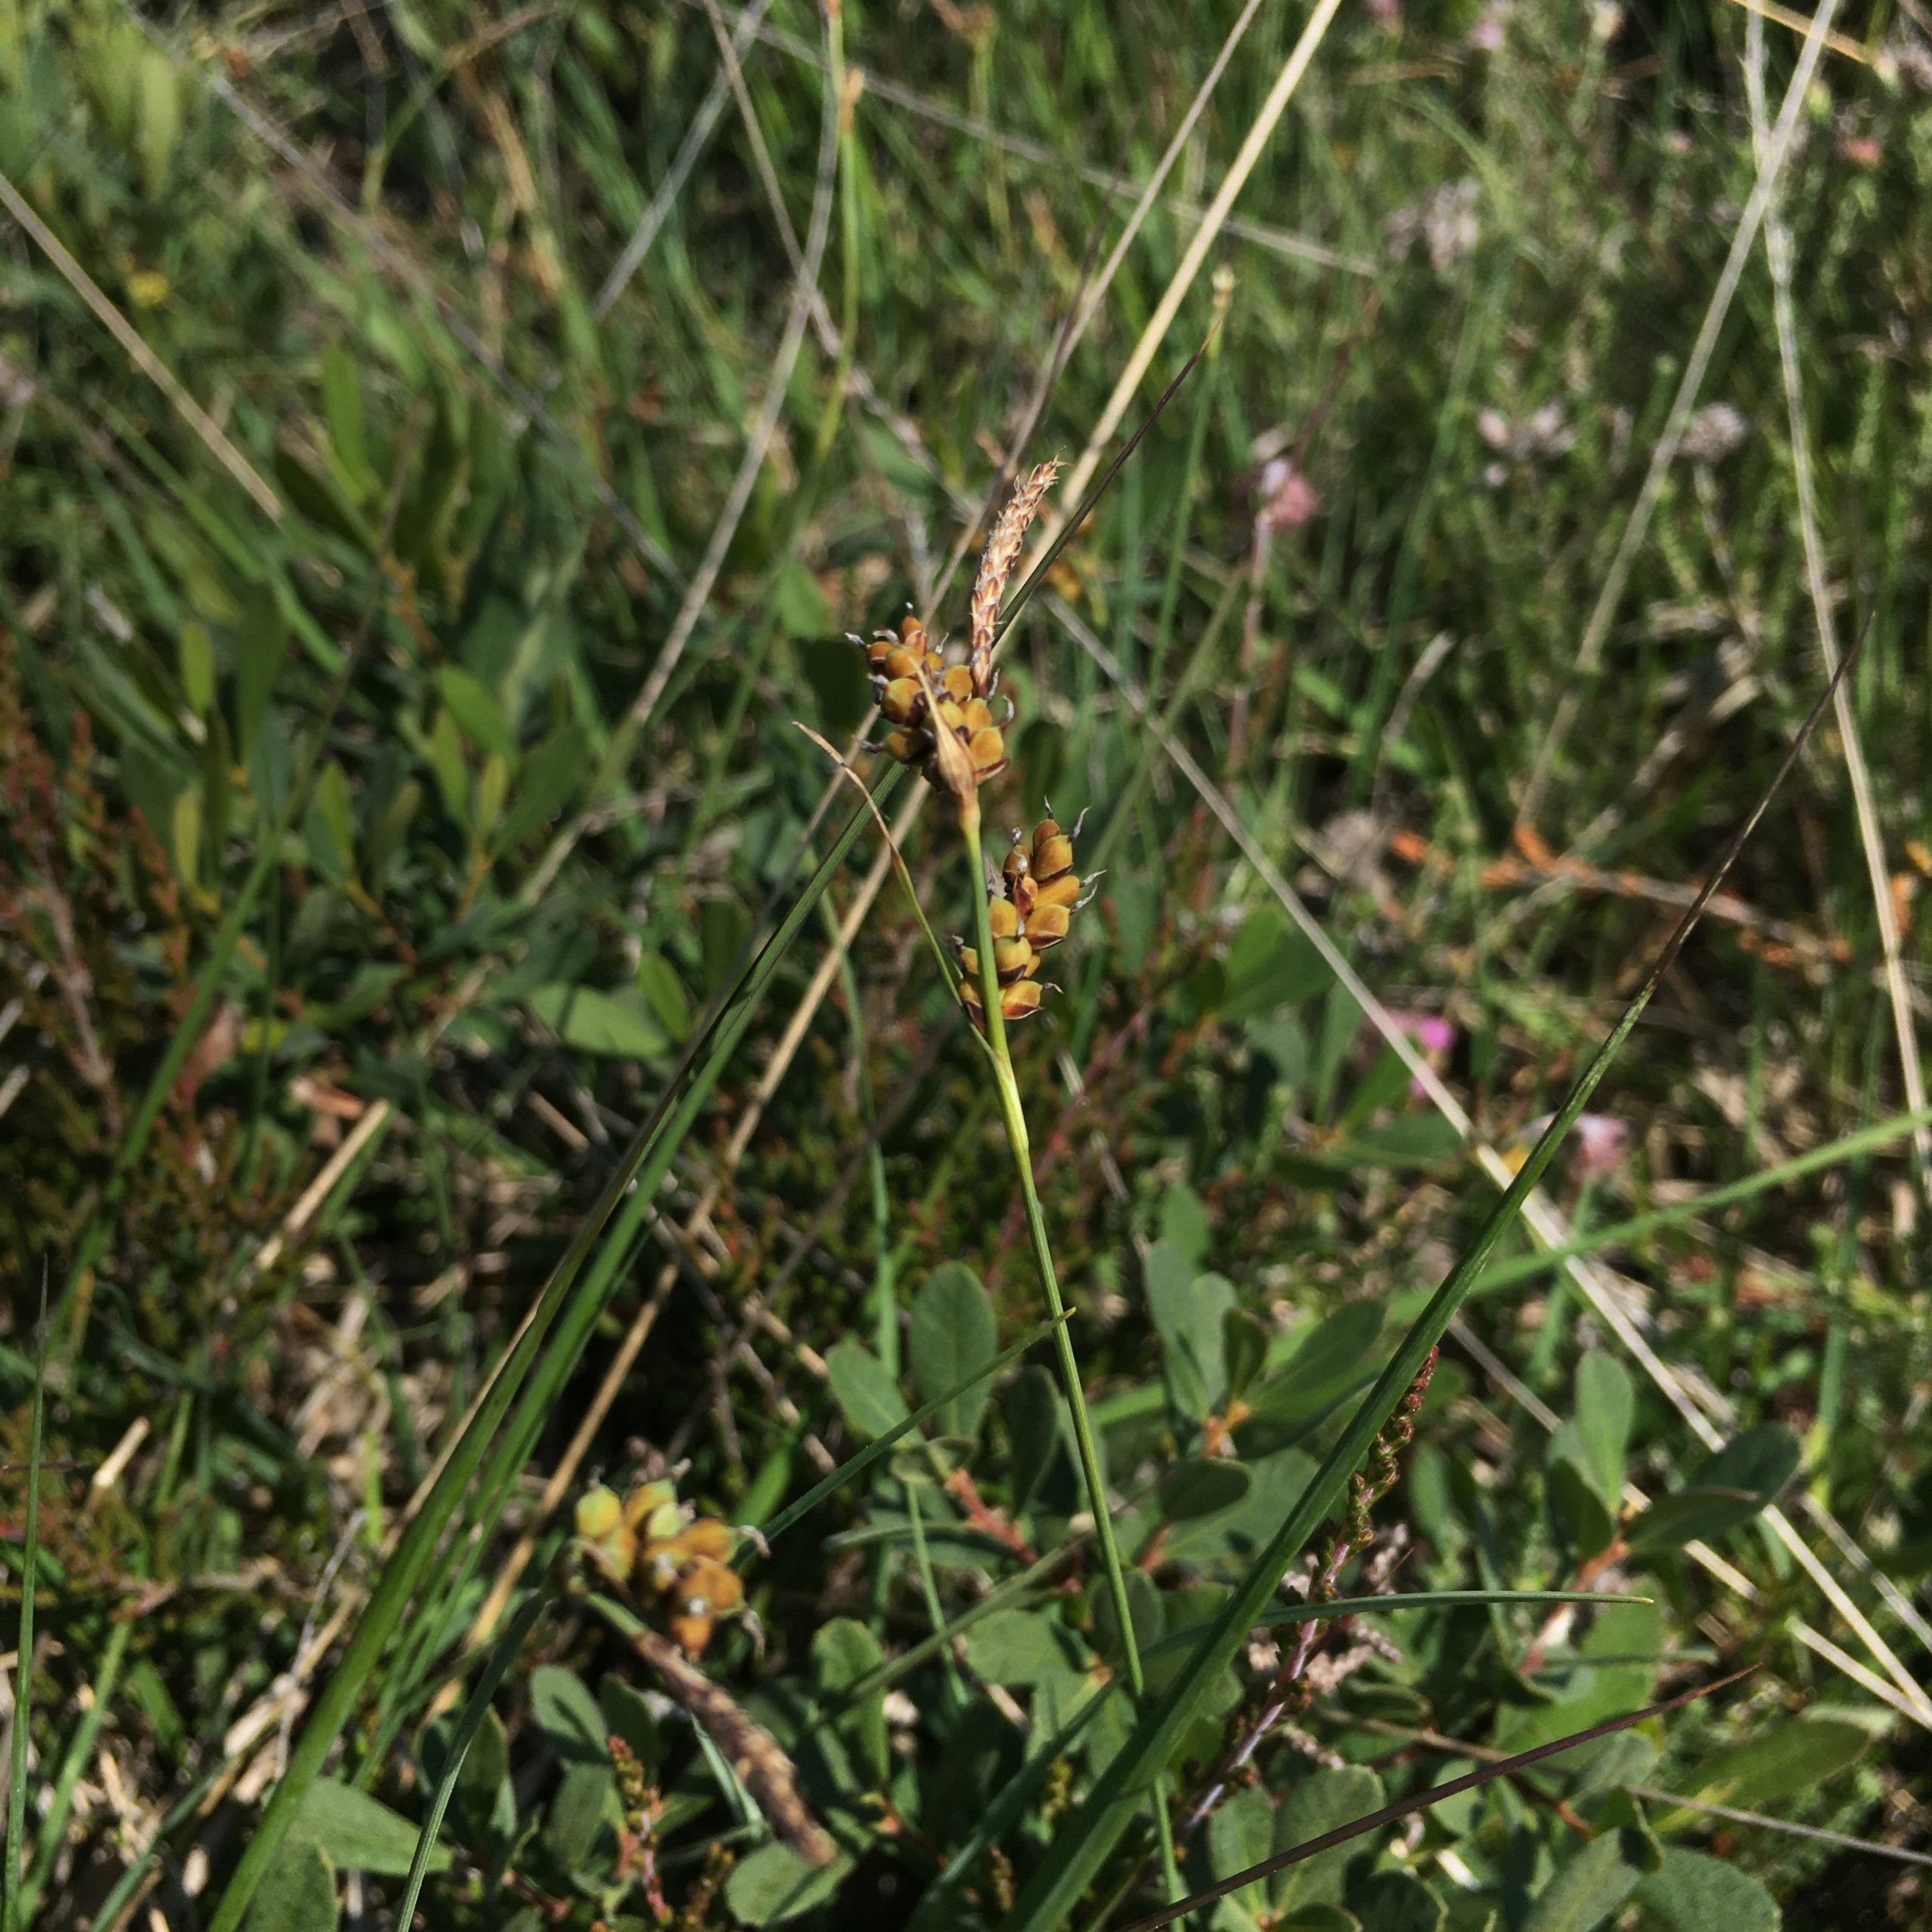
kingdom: Plantae
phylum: Tracheophyta
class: Liliopsida
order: Poales
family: Cyperaceae
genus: Carex
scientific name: Carex panicea
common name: Hirse-star
